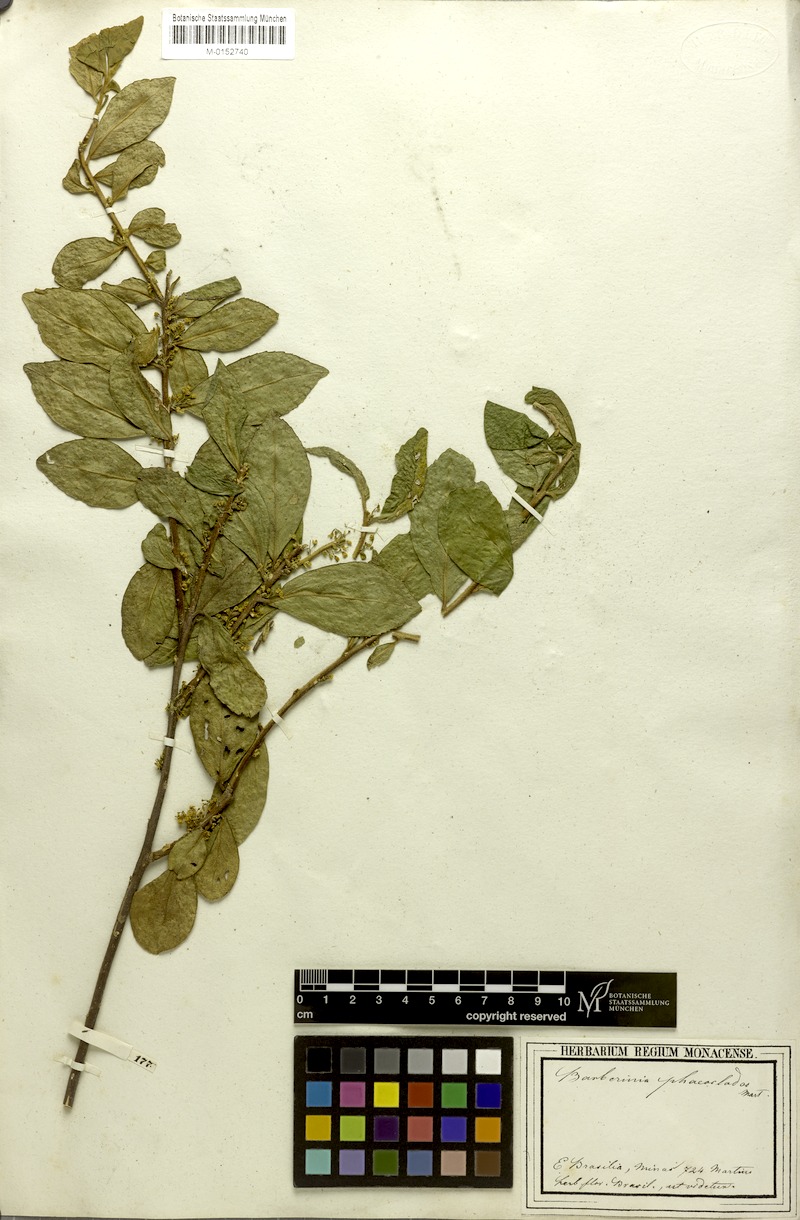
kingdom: Plantae
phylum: Tracheophyta
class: Magnoliopsida
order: Ericales
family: Symplocaceae
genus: Symplocos
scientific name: Symplocos arbutifolia
